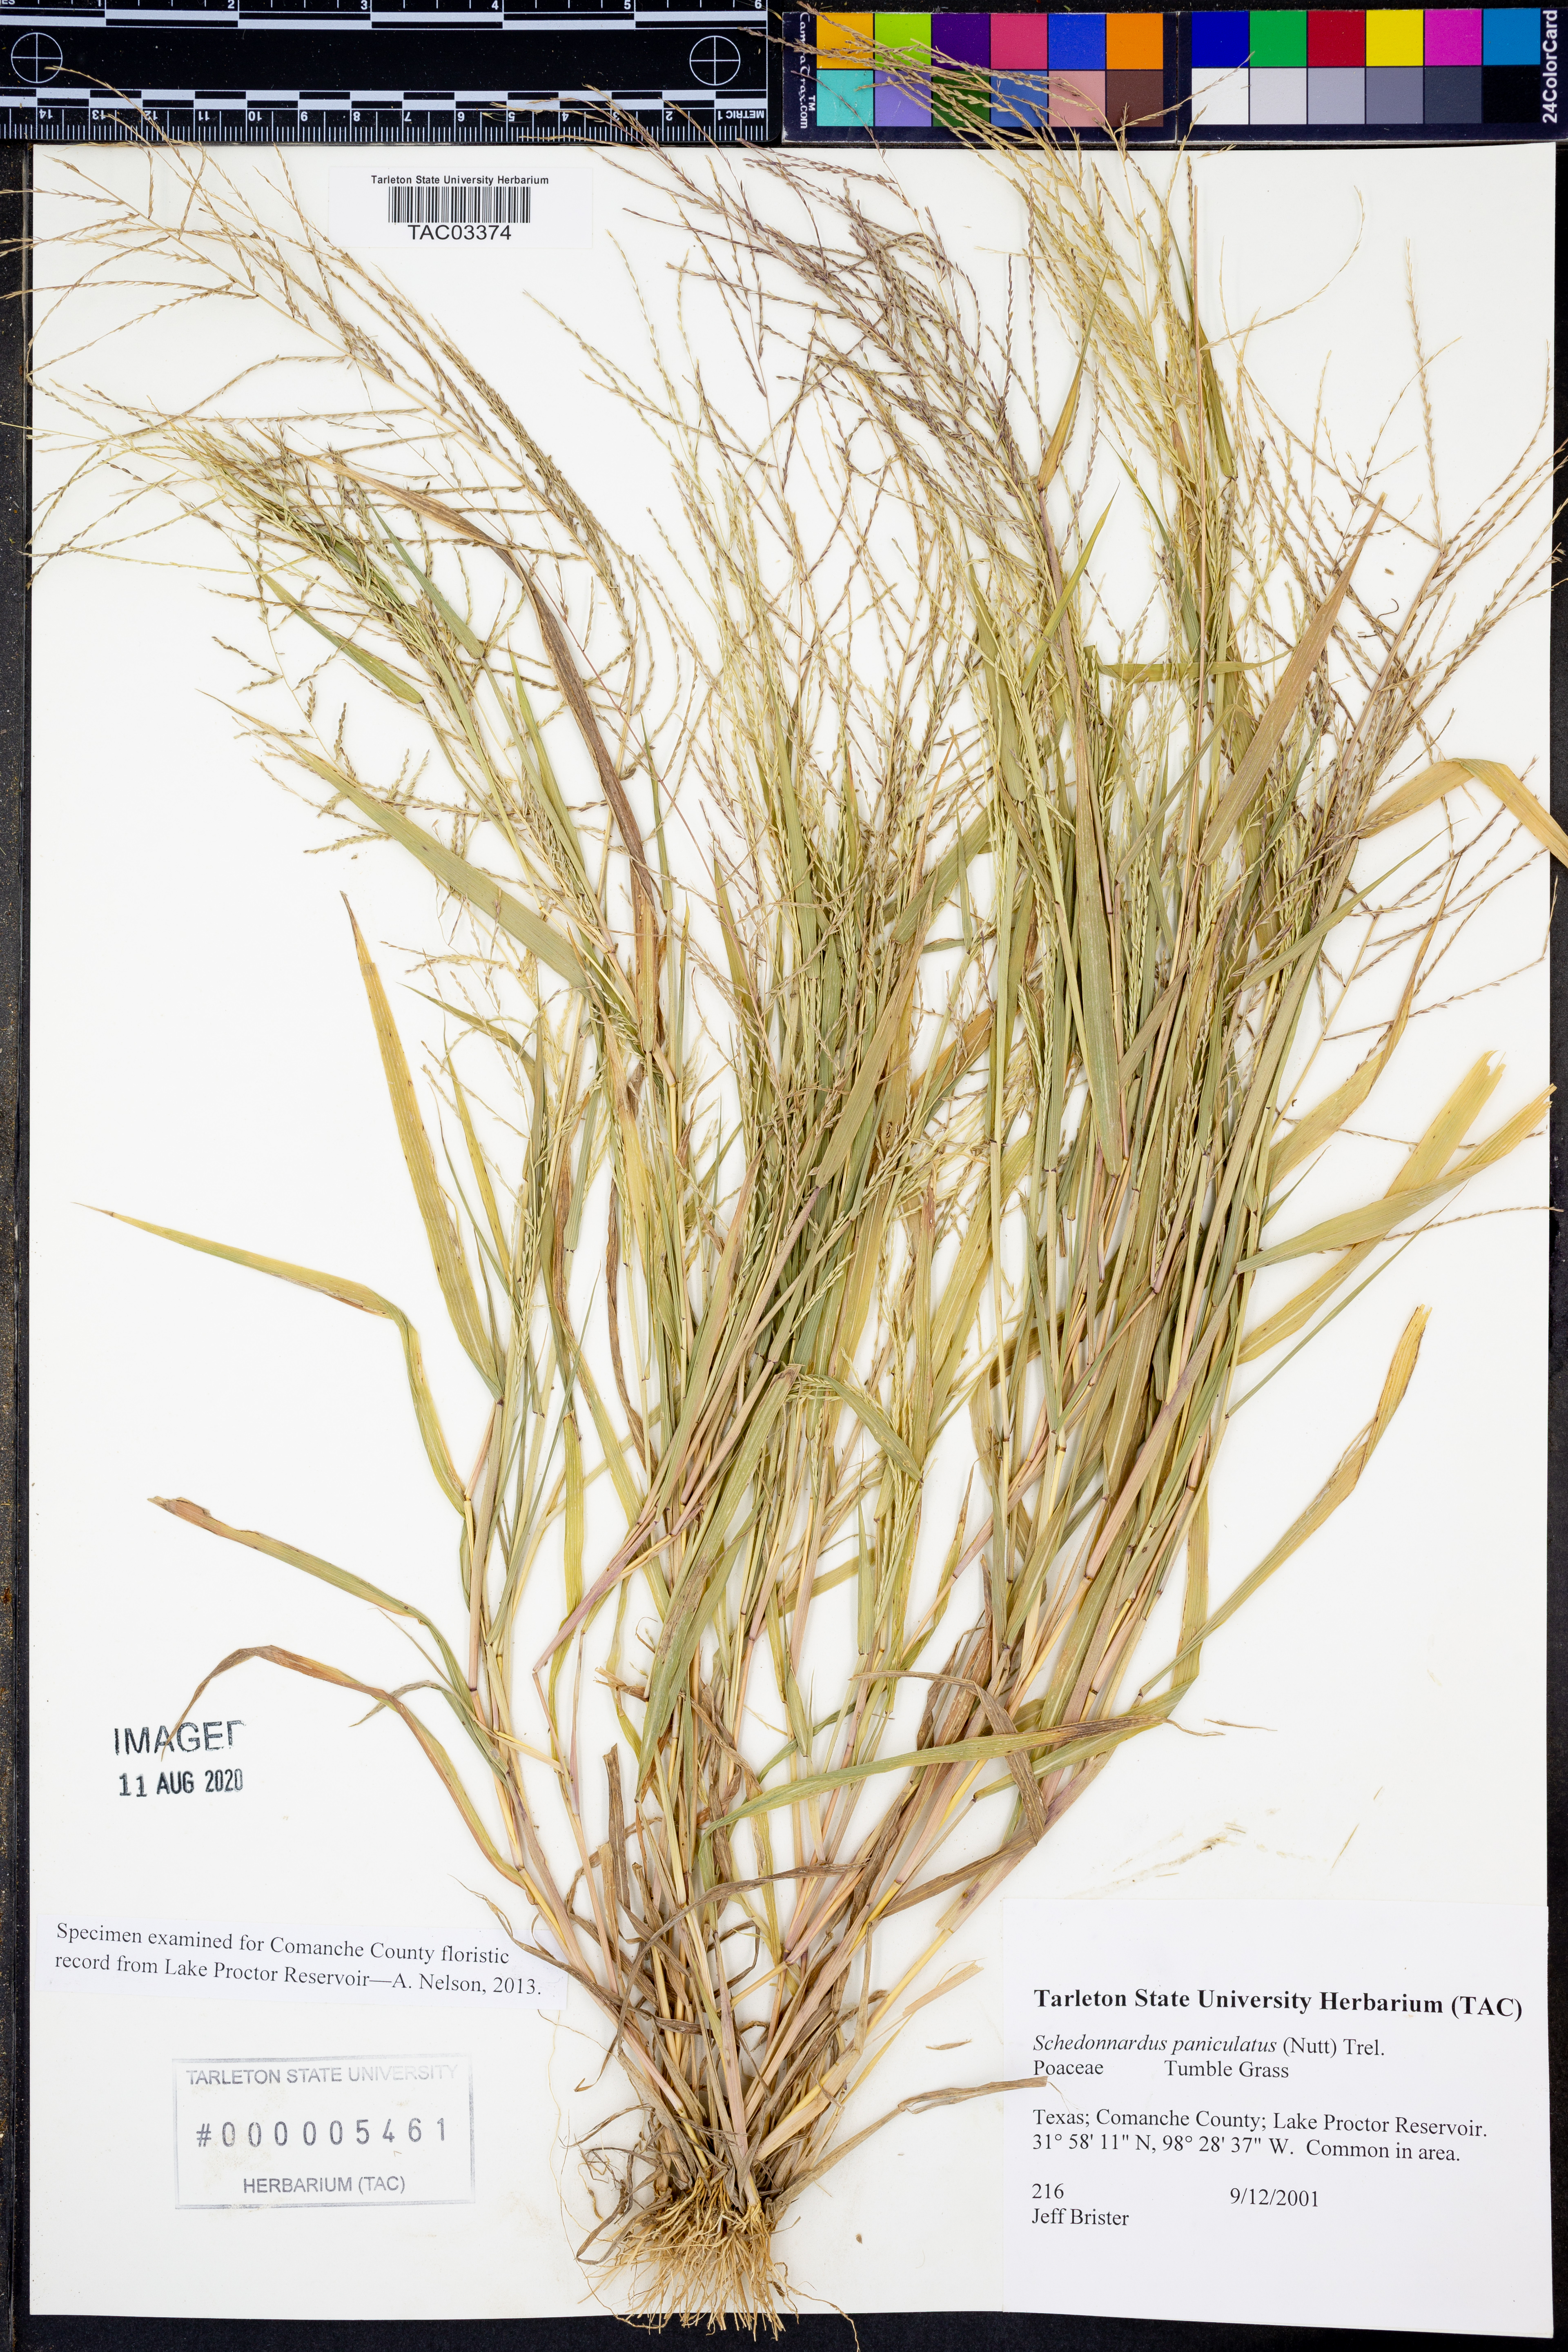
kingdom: Plantae
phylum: Tracheophyta
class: Liliopsida
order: Poales
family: Poaceae
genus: Muhlenbergia
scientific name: Muhlenbergia paniculata
